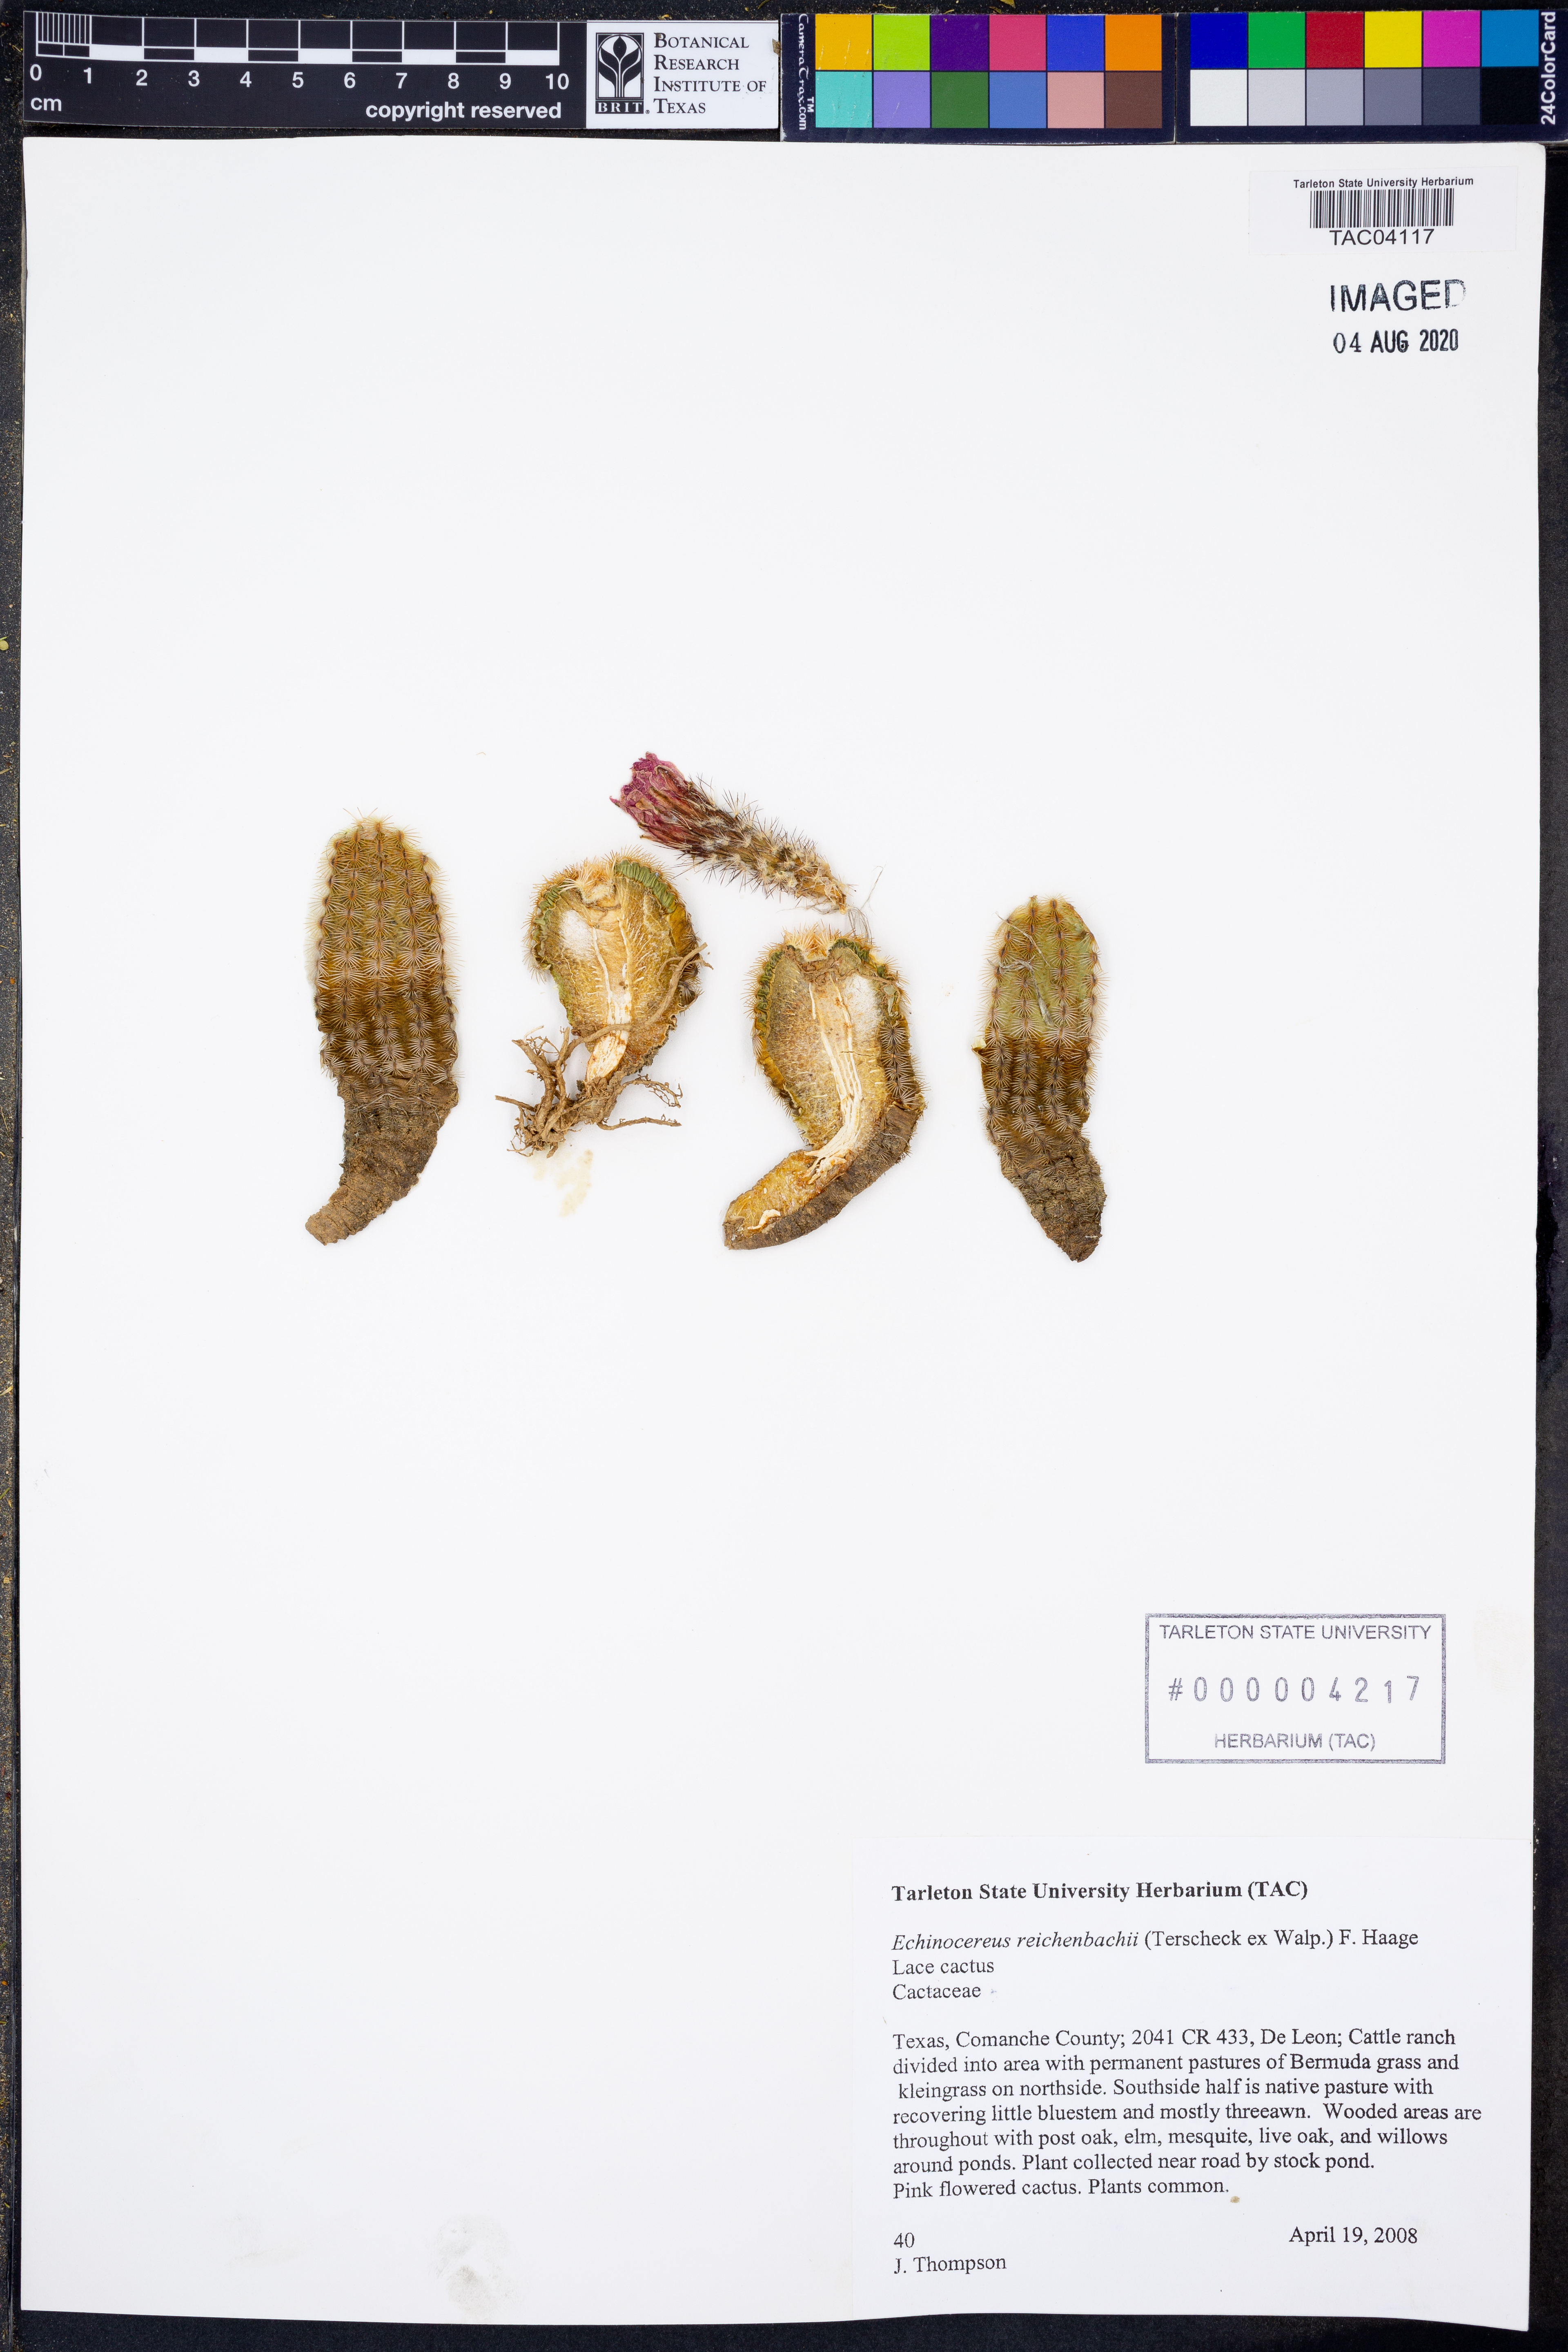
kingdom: Plantae
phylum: Tracheophyta
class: Magnoliopsida
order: Caryophyllales
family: Cactaceae
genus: Echinocereus
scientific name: Echinocereus reichenbachii
